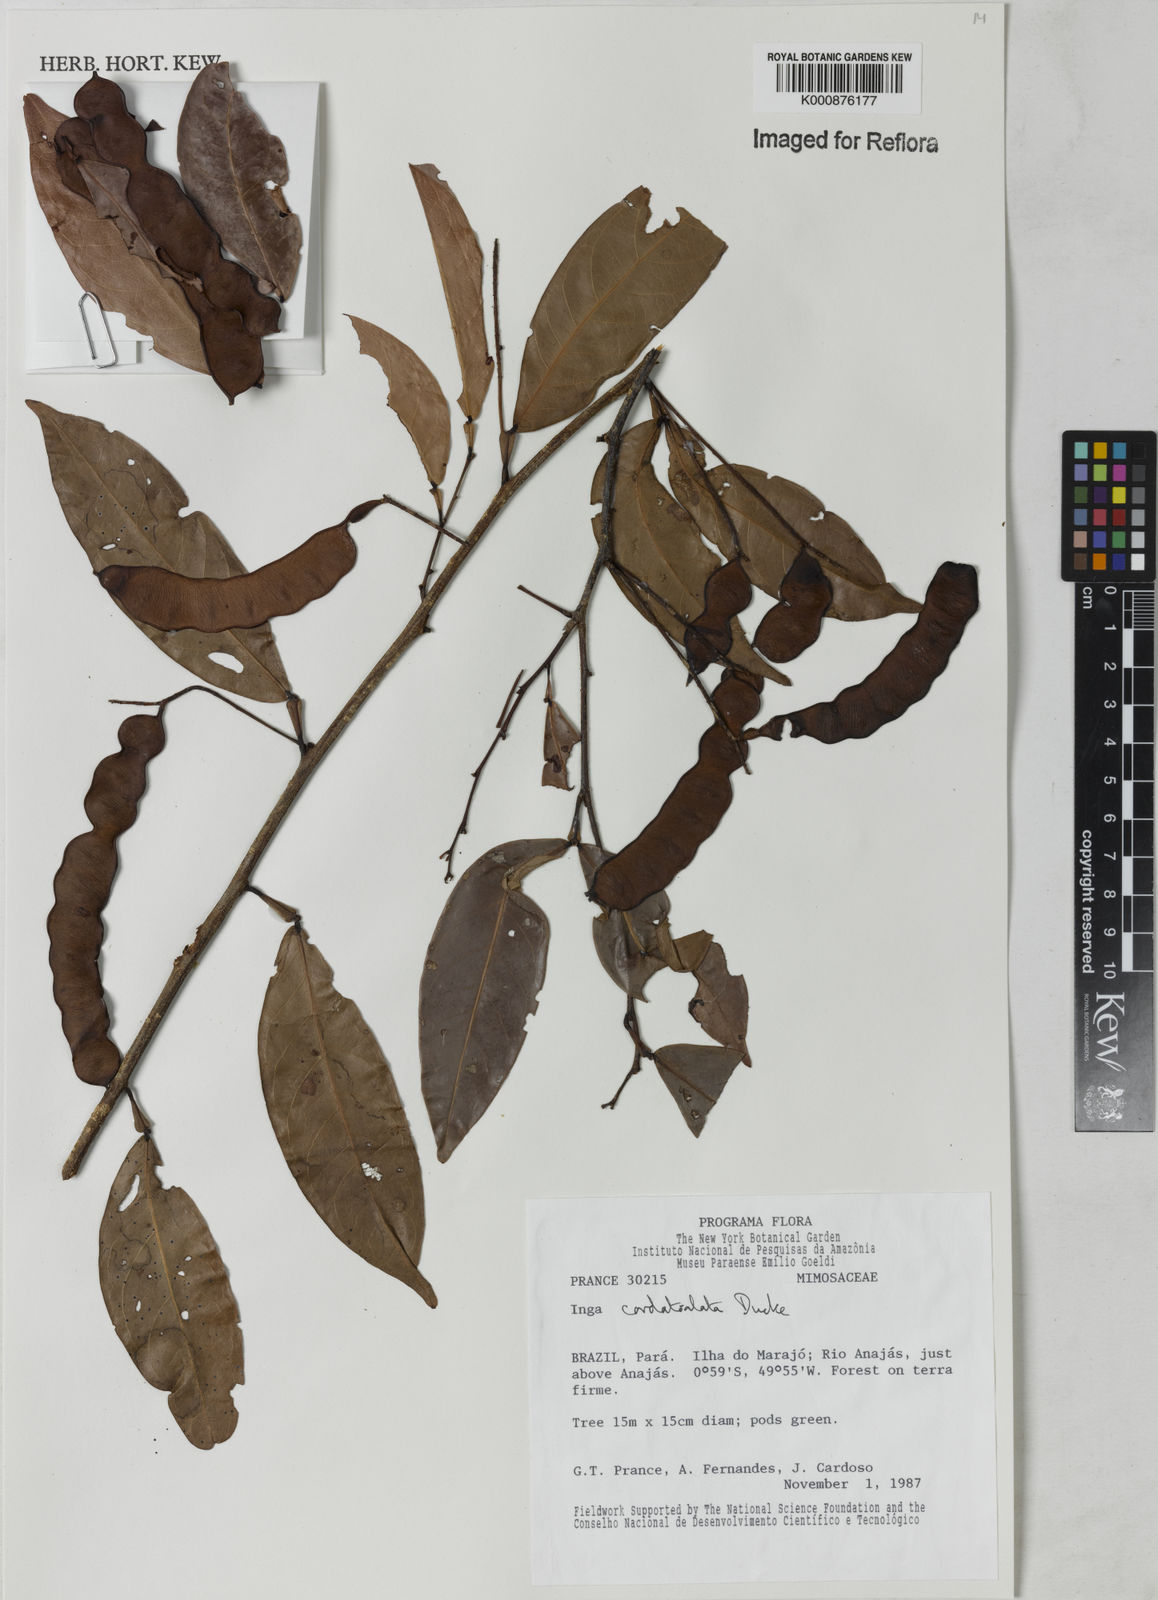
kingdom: Plantae
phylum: Tracheophyta
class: Magnoliopsida
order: Fabales
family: Fabaceae
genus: Inga
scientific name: Inga cordatoalata
